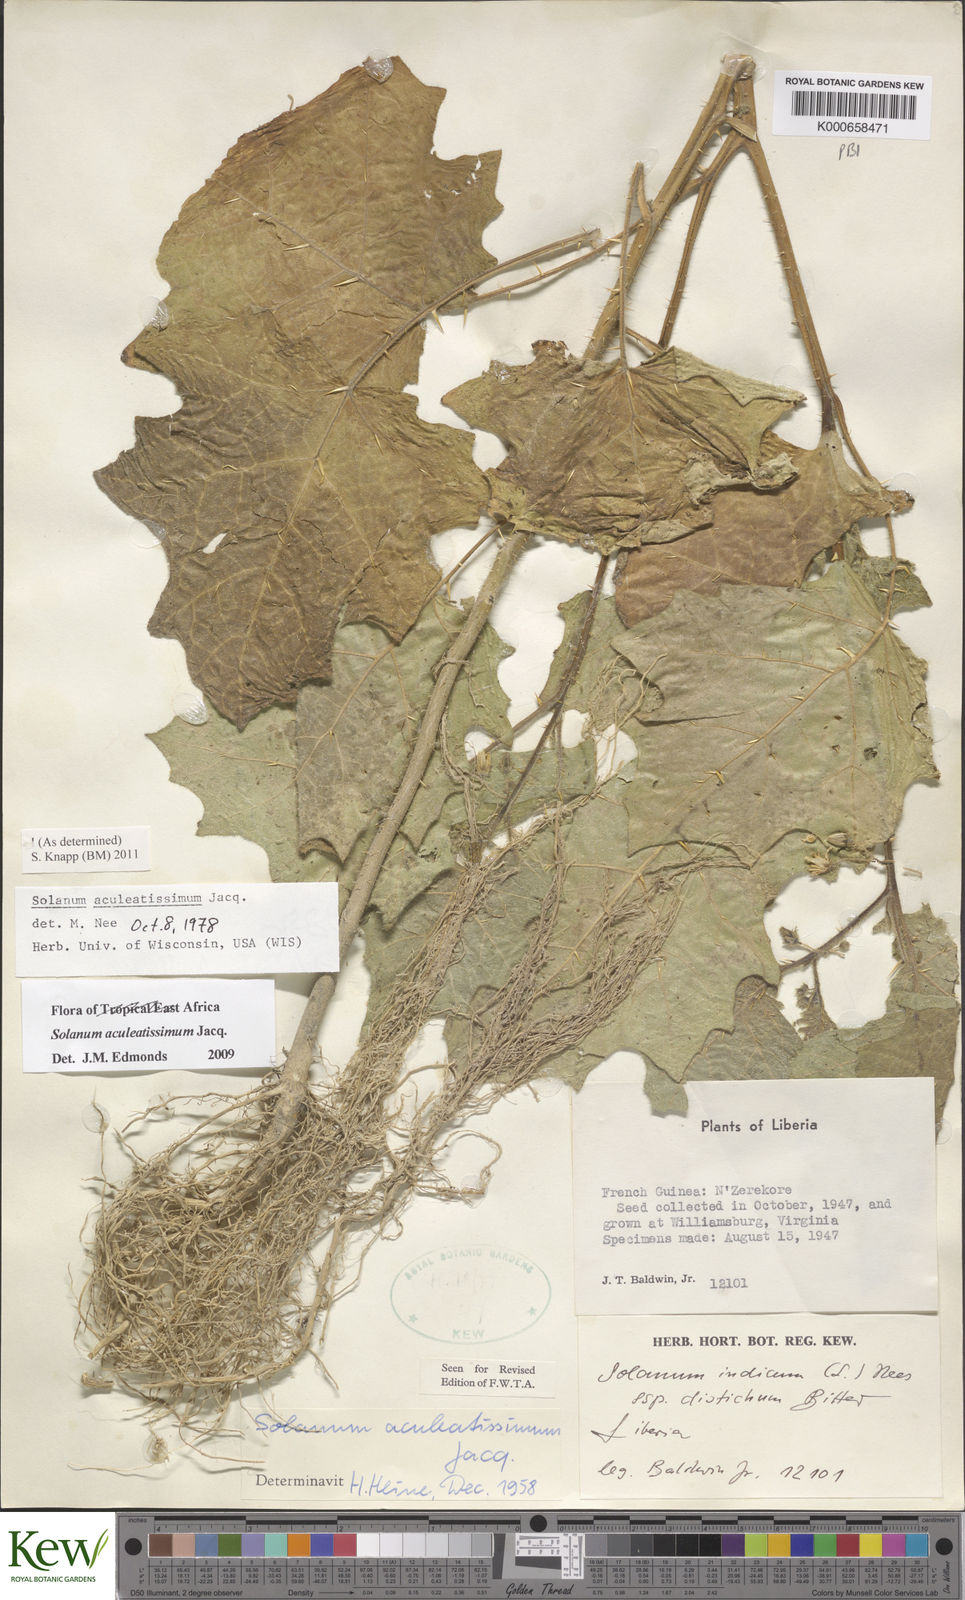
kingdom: Plantae
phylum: Tracheophyta
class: Magnoliopsida
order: Solanales
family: Solanaceae
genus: Solanum
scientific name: Solanum aculeatissimum
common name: Dutch eggplant
